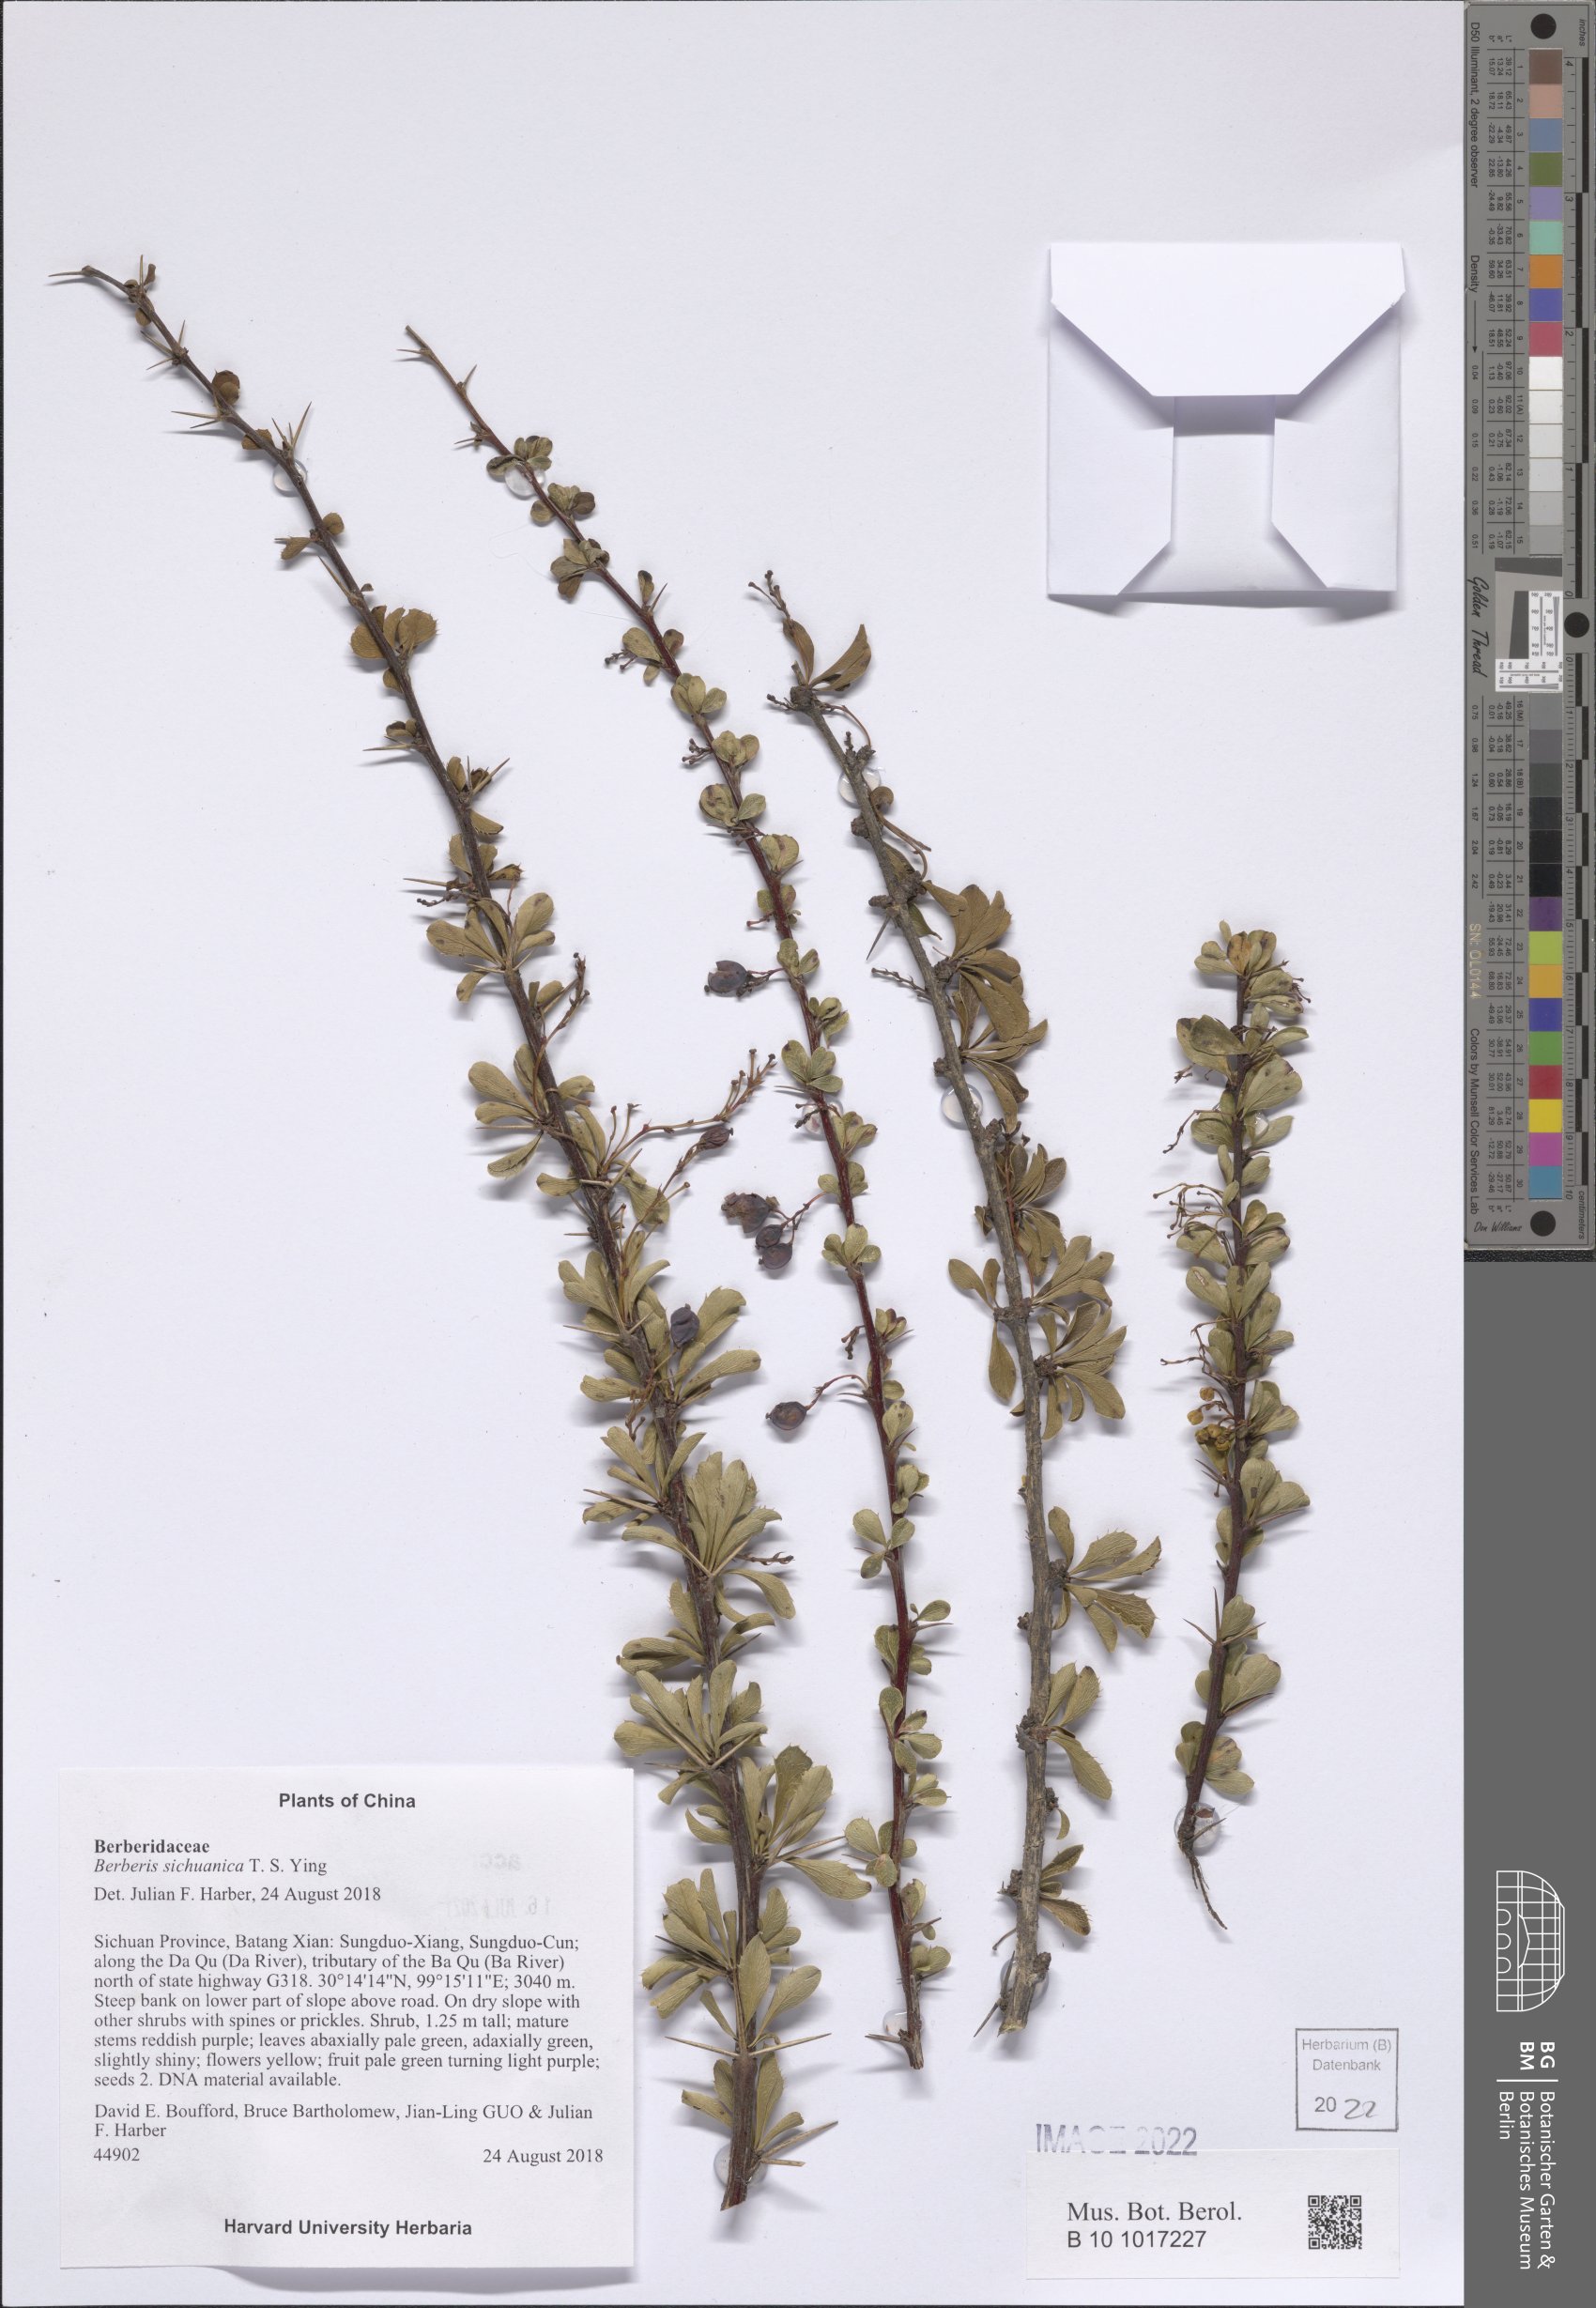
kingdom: Plantae
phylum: Tracheophyta
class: Magnoliopsida
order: Ranunculales
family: Berberidaceae
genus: Berberis
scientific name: Berberis sichuanica
